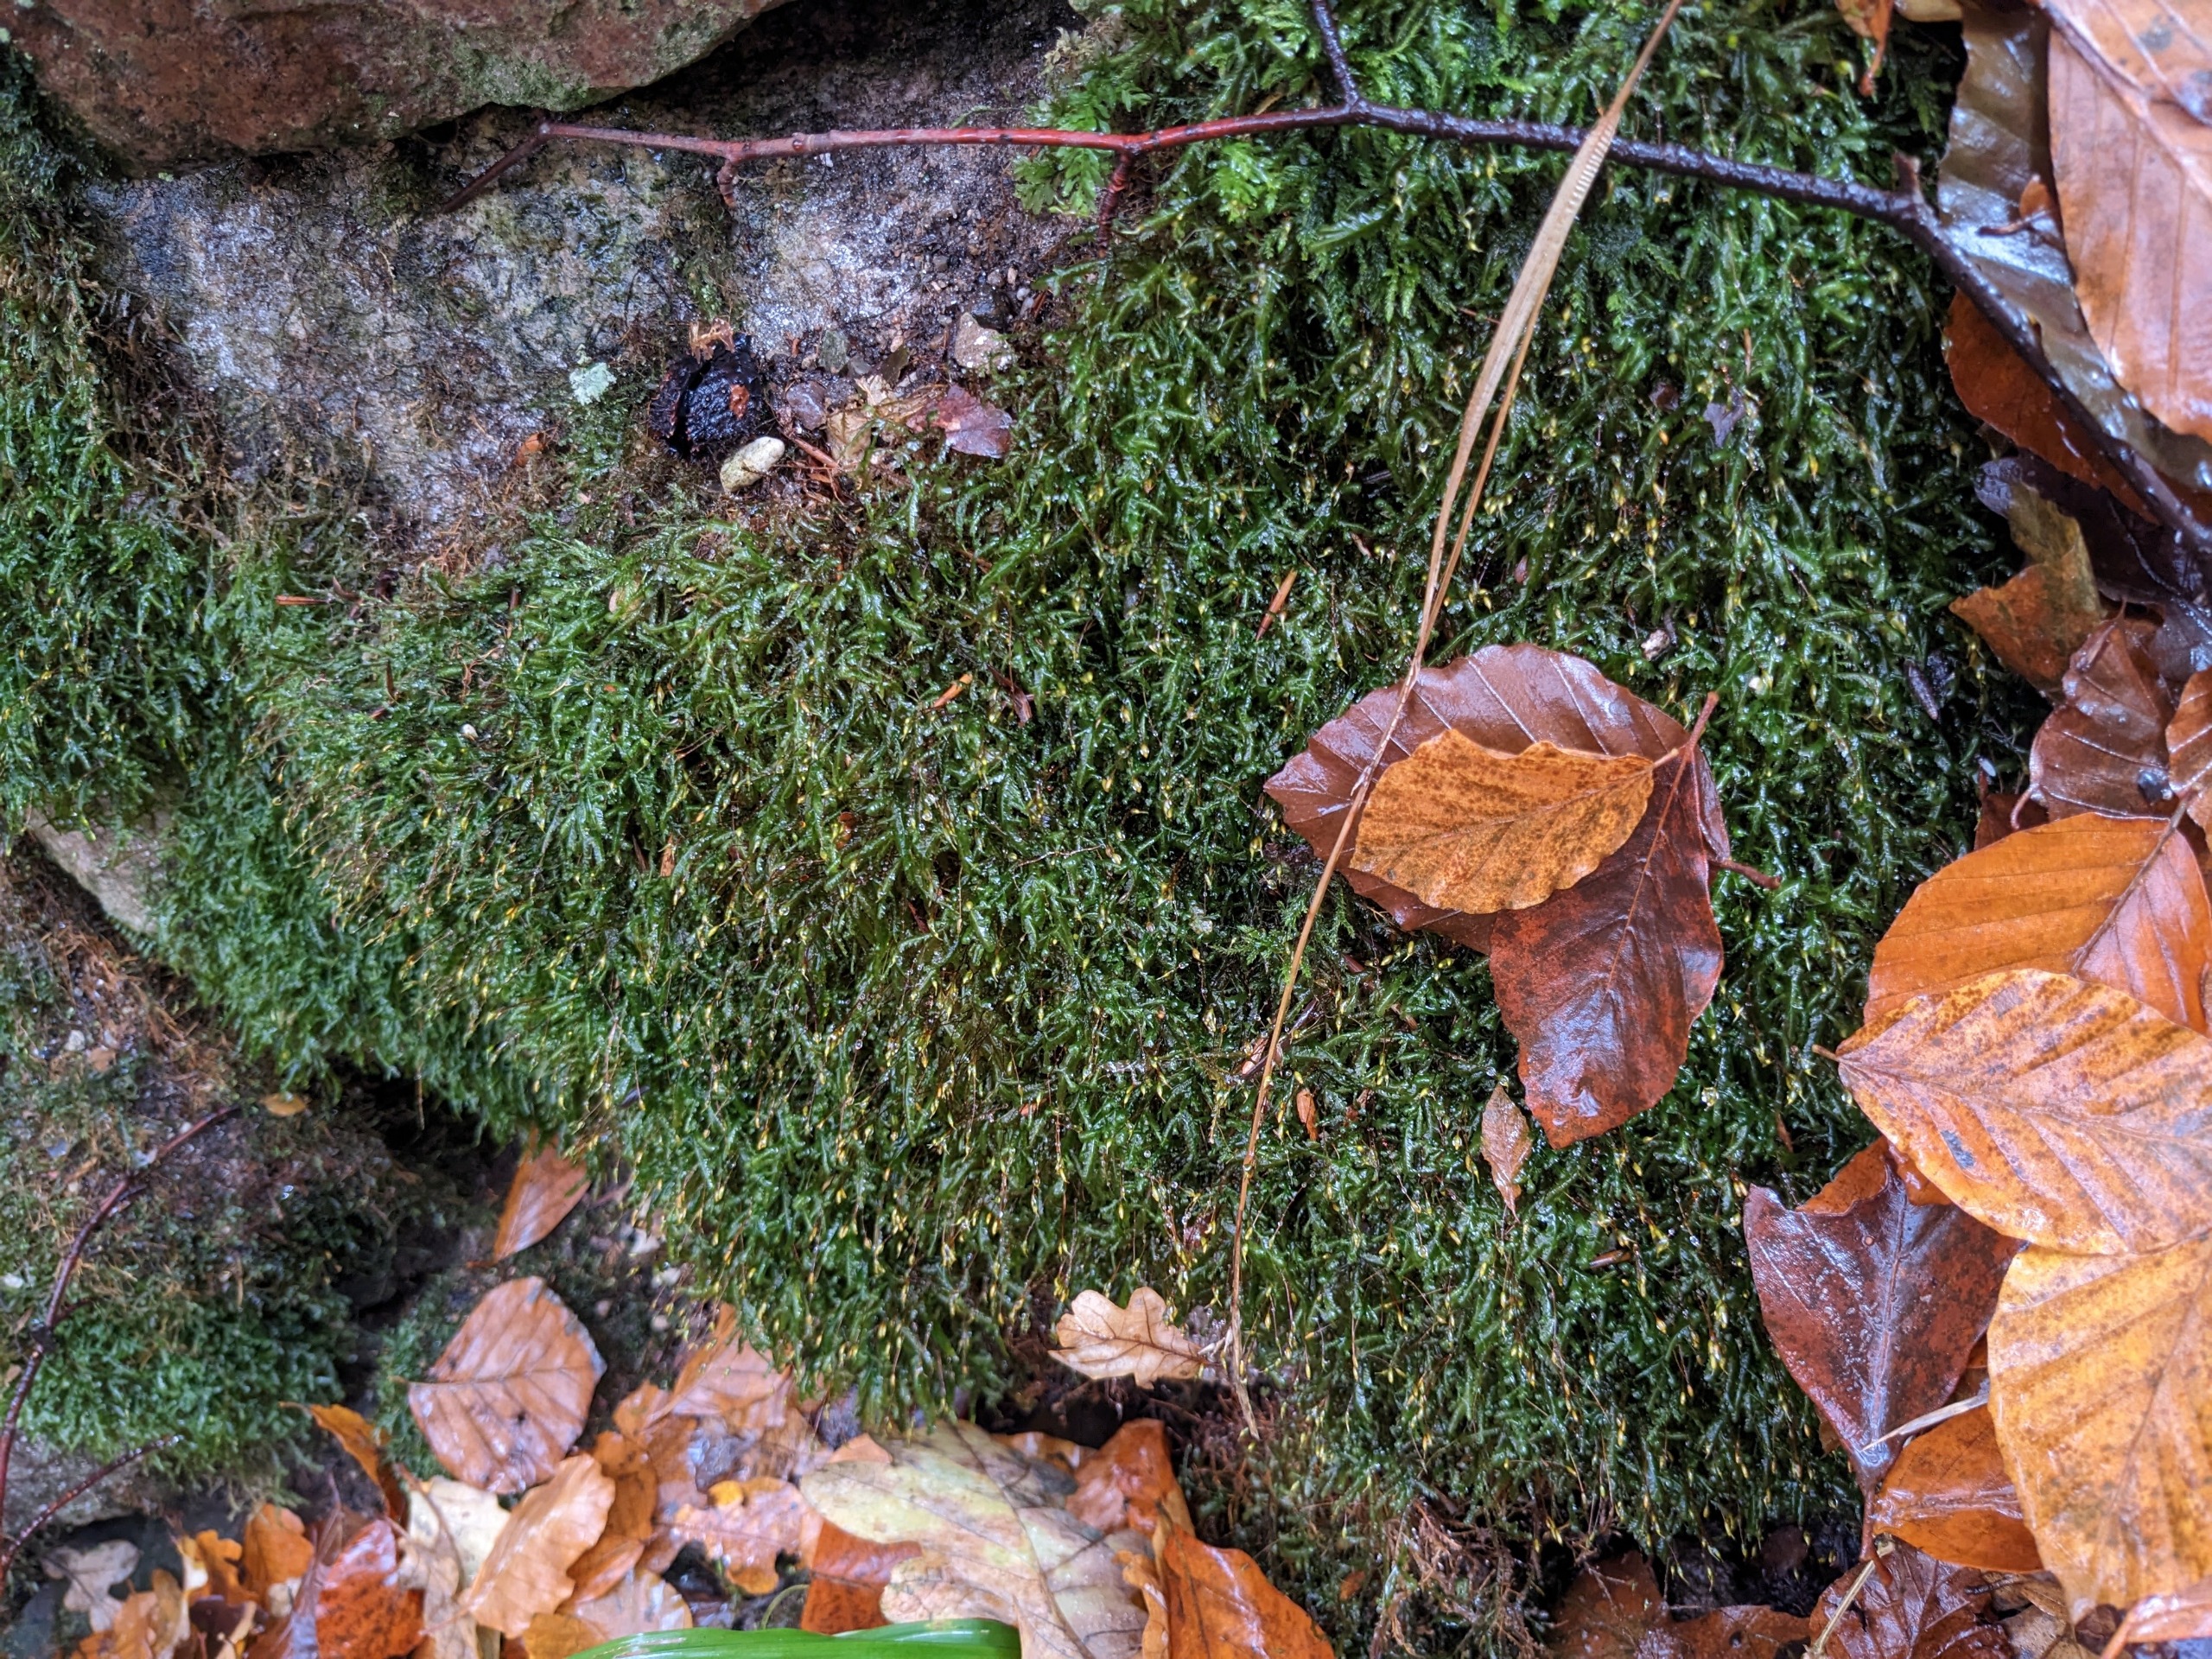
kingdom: Plantae
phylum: Bryophyta
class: Bryopsida
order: Hypnales
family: Neckeraceae
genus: Homalia
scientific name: Homalia trichomanoides
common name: Skov-tungemos
